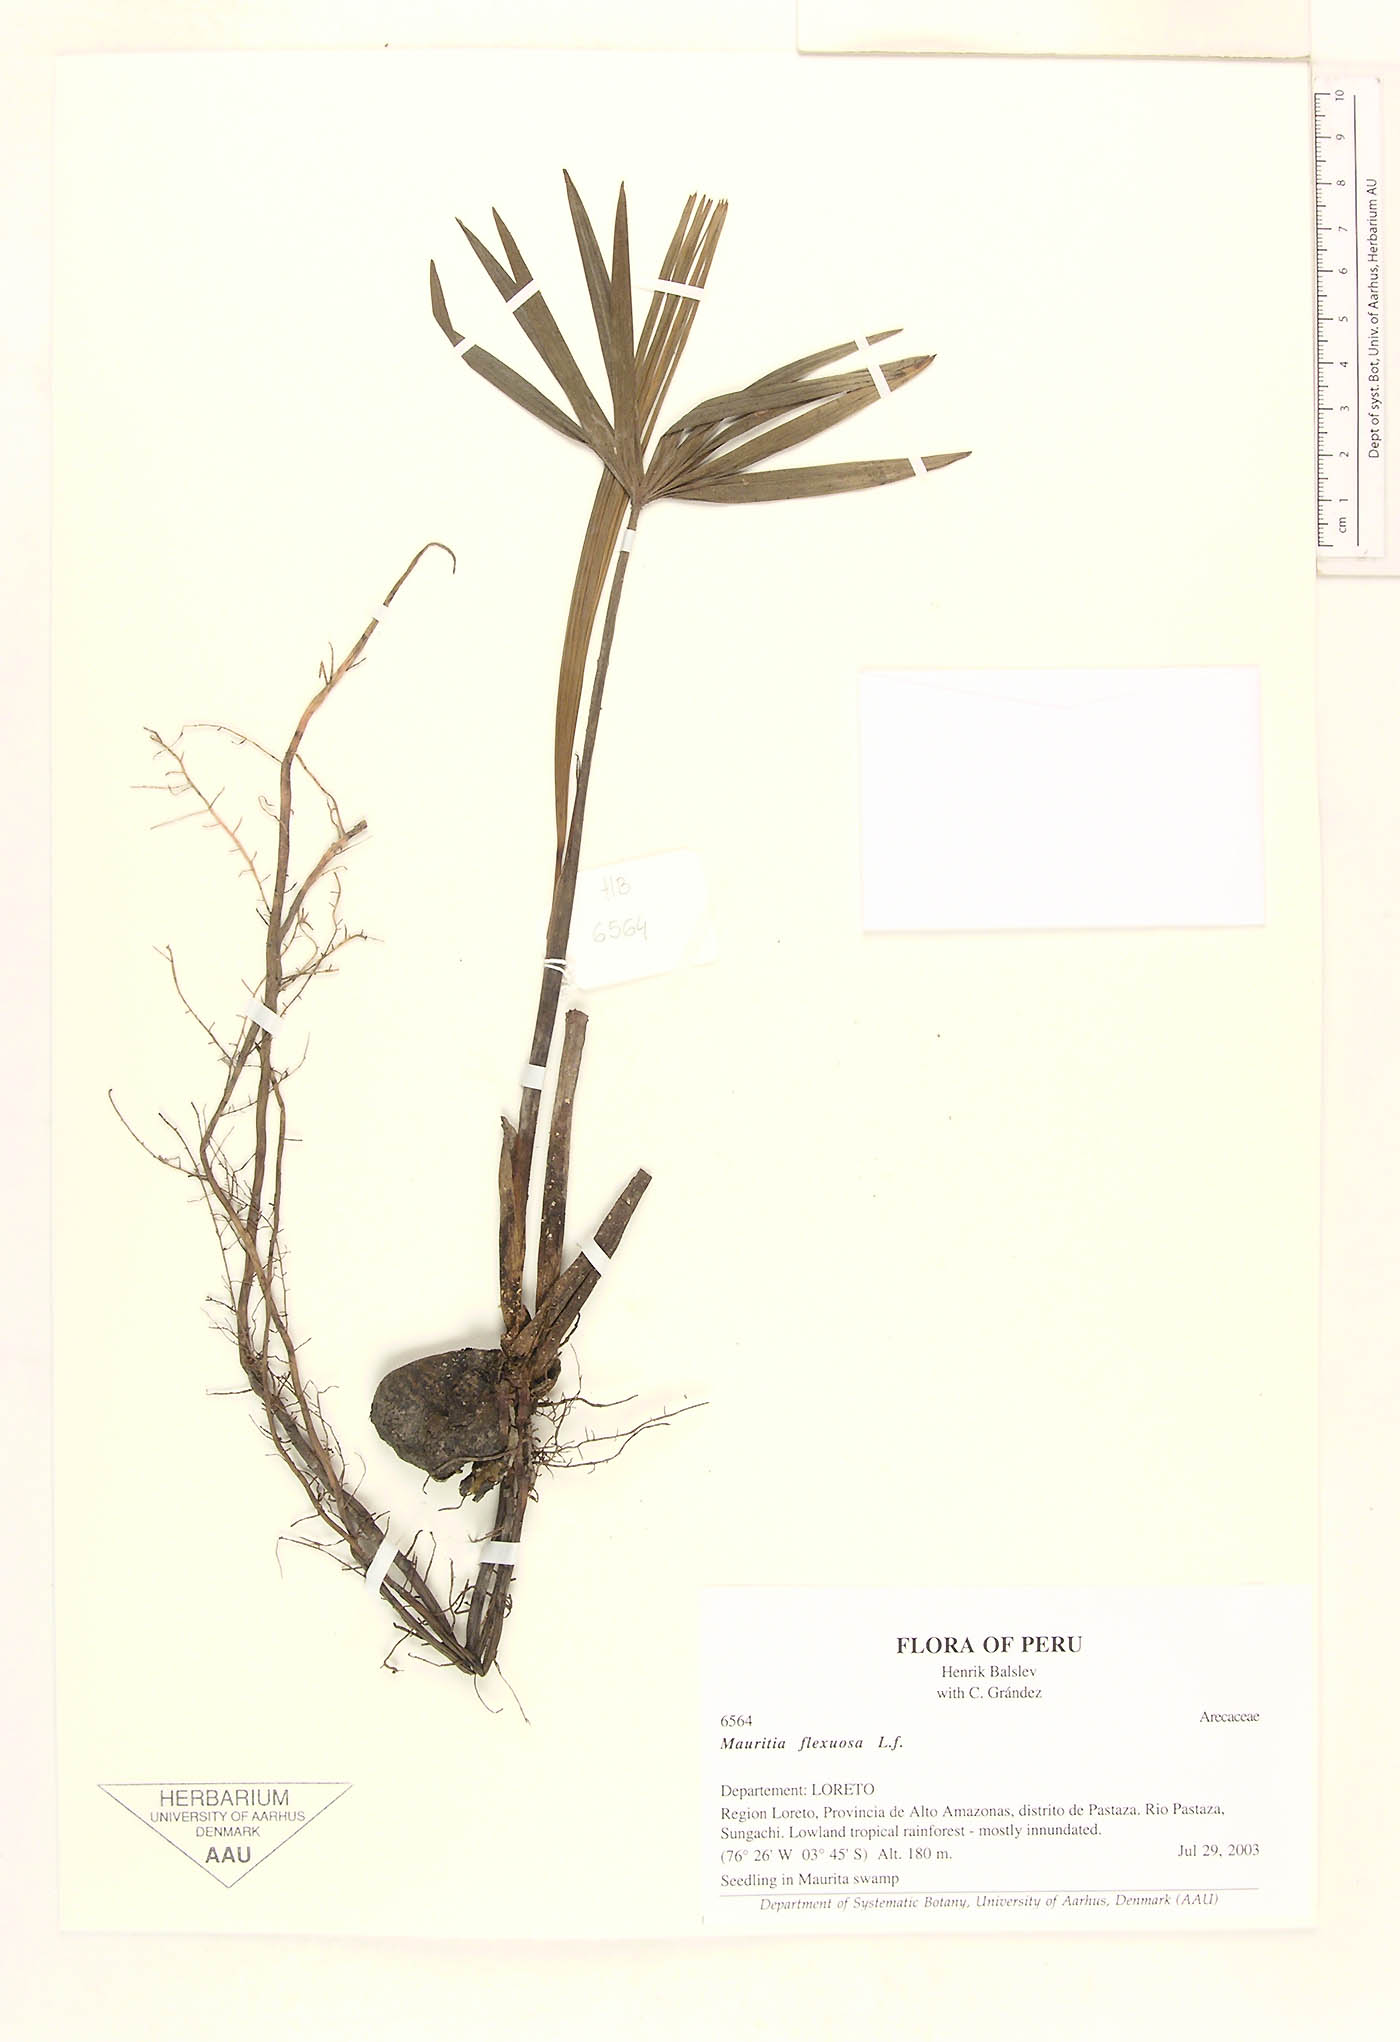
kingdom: Plantae
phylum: Tracheophyta
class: Liliopsida
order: Arecales
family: Arecaceae
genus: Mauritia
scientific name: Mauritia flexuosa
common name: Tree-of-life
